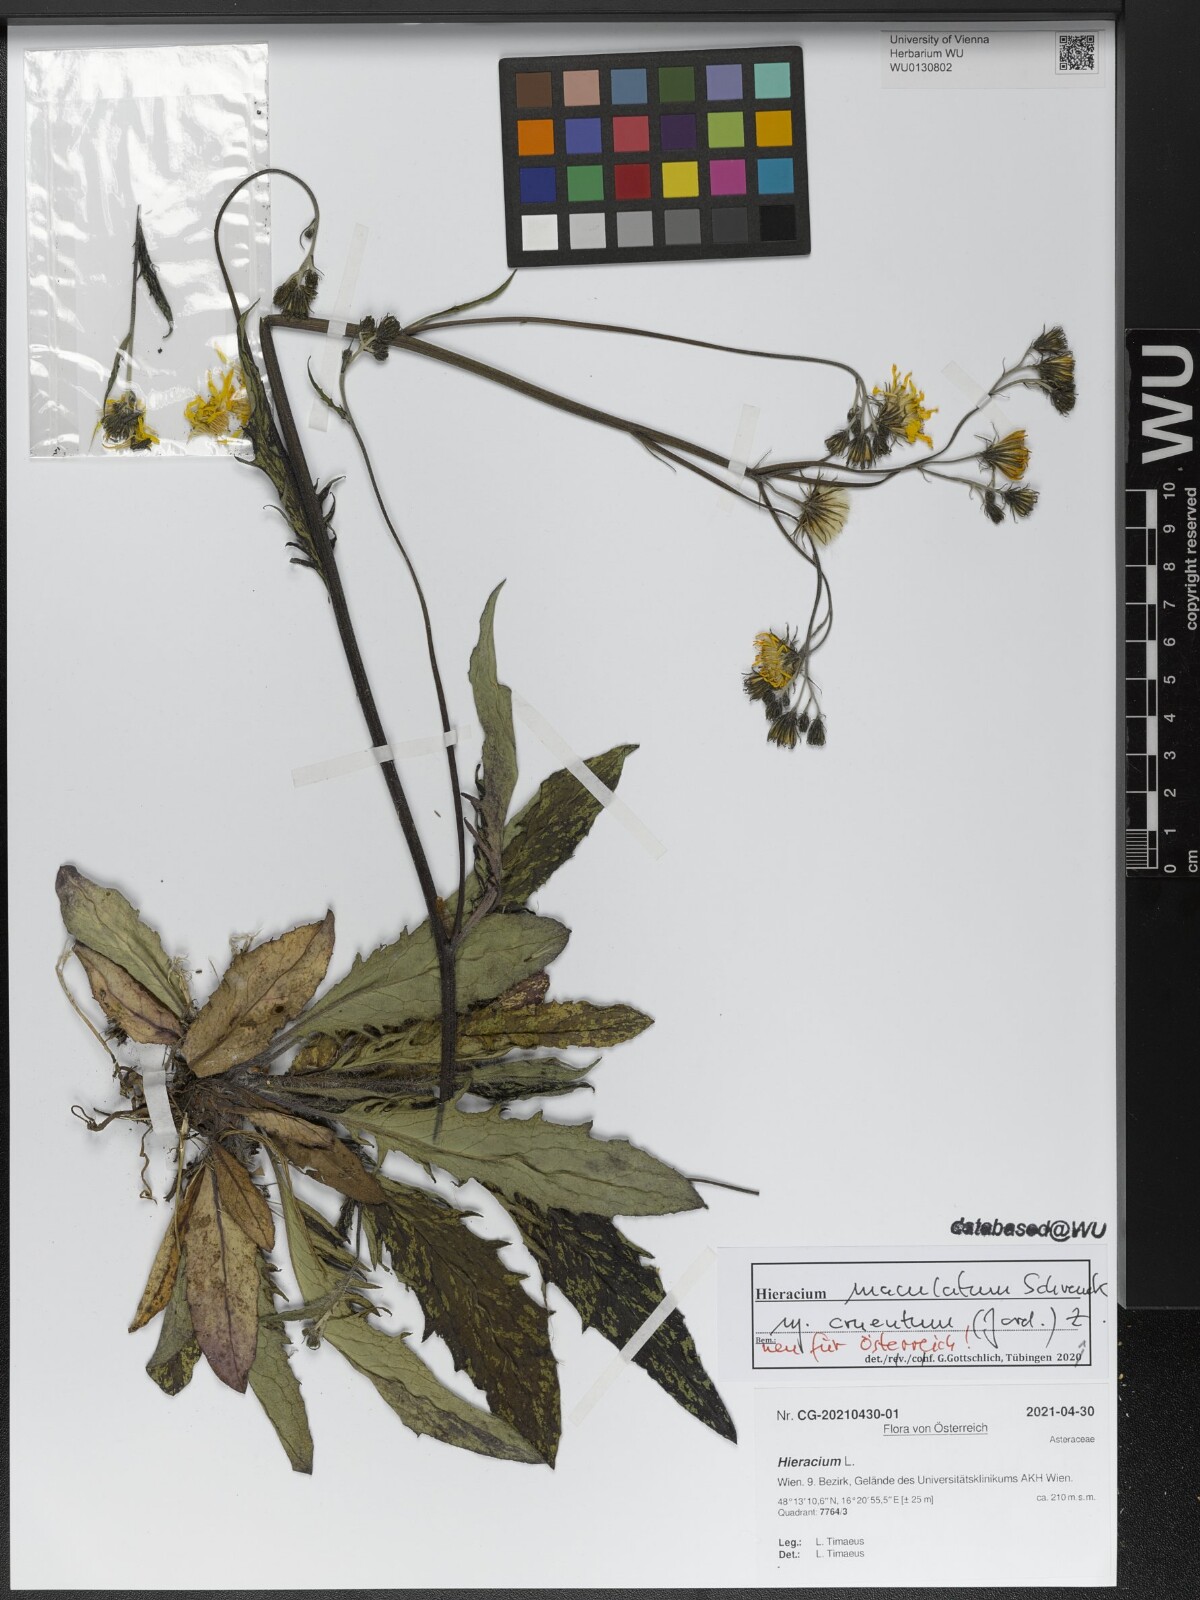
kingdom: Plantae
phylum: Tracheophyta
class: Magnoliopsida
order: Asterales
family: Asteraceae
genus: Hieracium
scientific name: Hieracium maculatum
